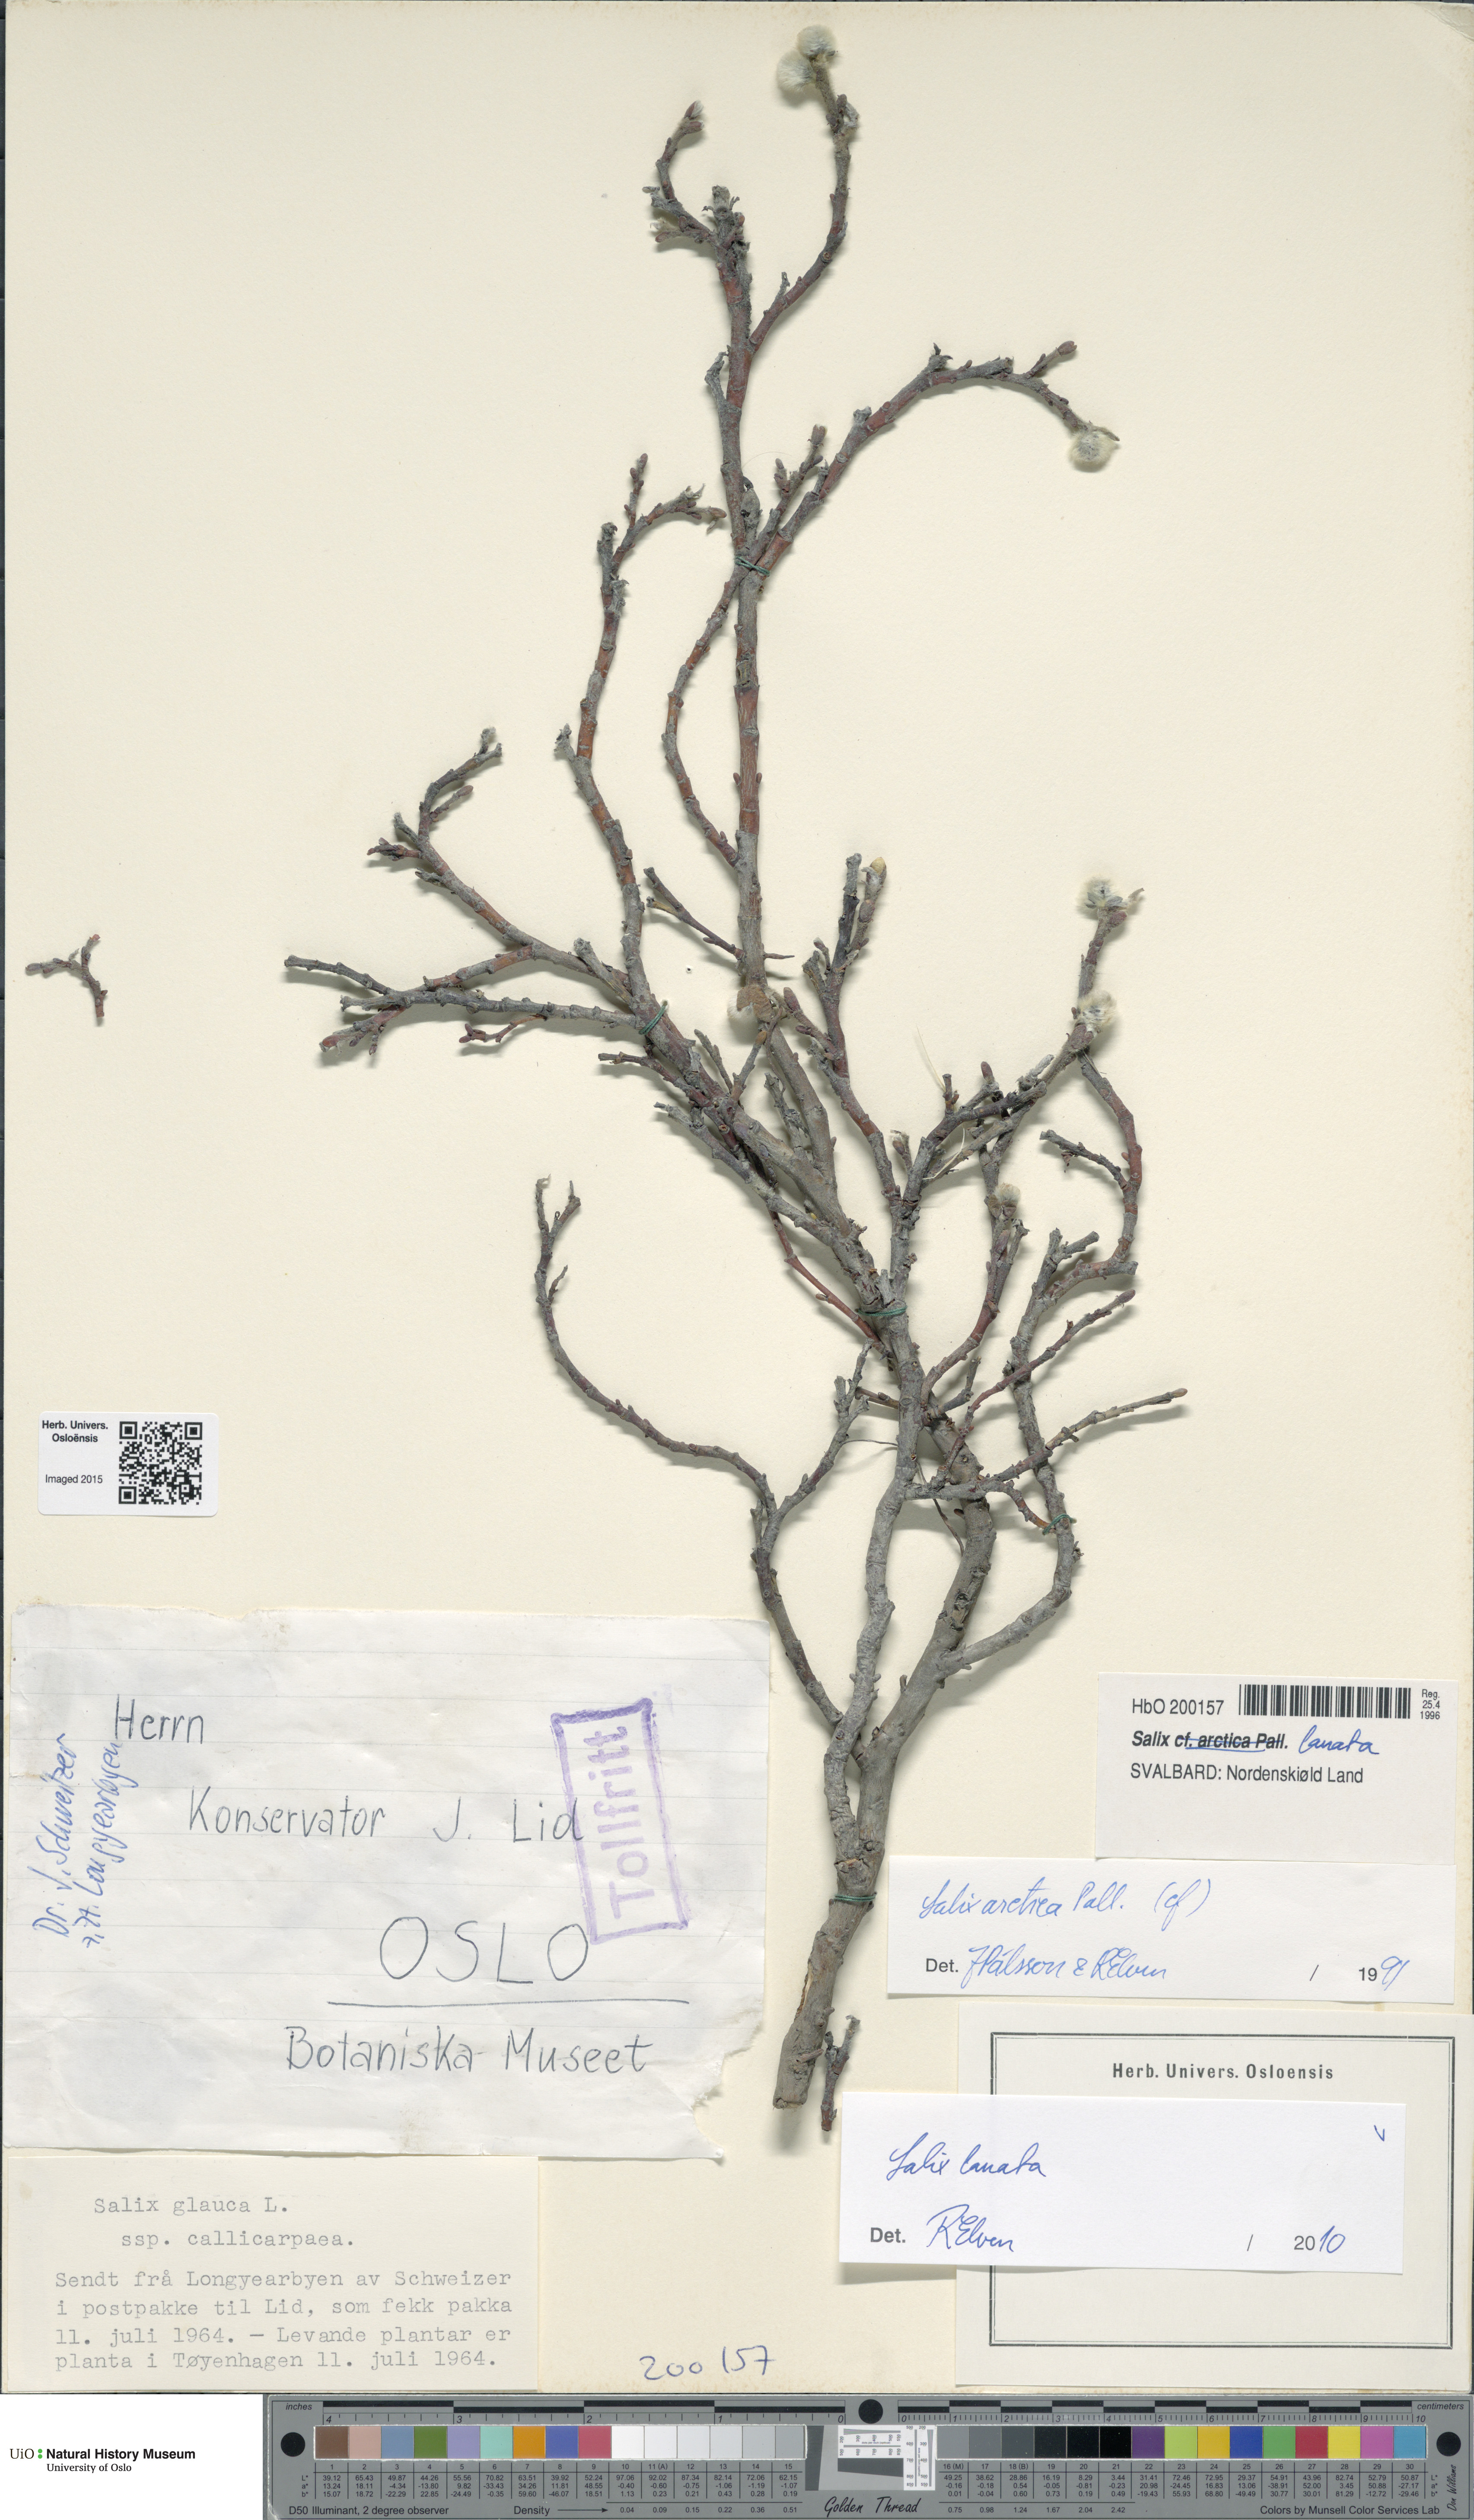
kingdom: Plantae
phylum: Tracheophyta
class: Magnoliopsida
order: Malpighiales
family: Salicaceae
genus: Salix
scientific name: Salix lanata
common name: Woolly willow
